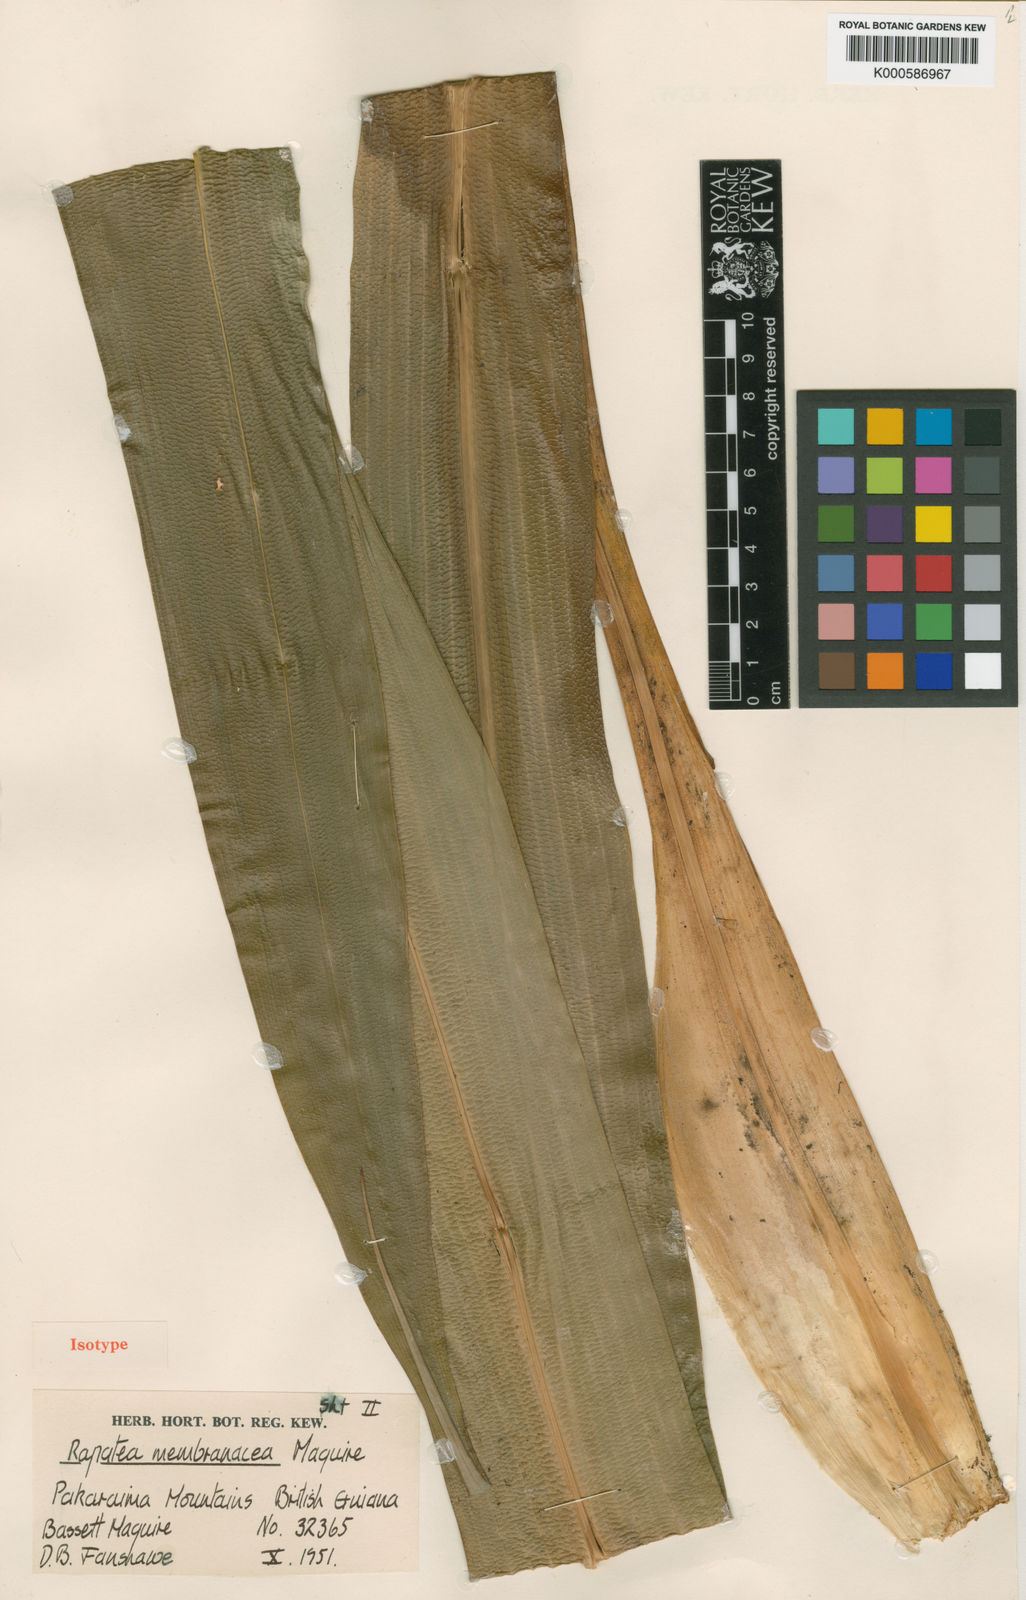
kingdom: Plantae
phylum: Tracheophyta
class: Liliopsida
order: Poales
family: Rapateaceae
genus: Rapatea
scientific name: Rapatea membranacea
